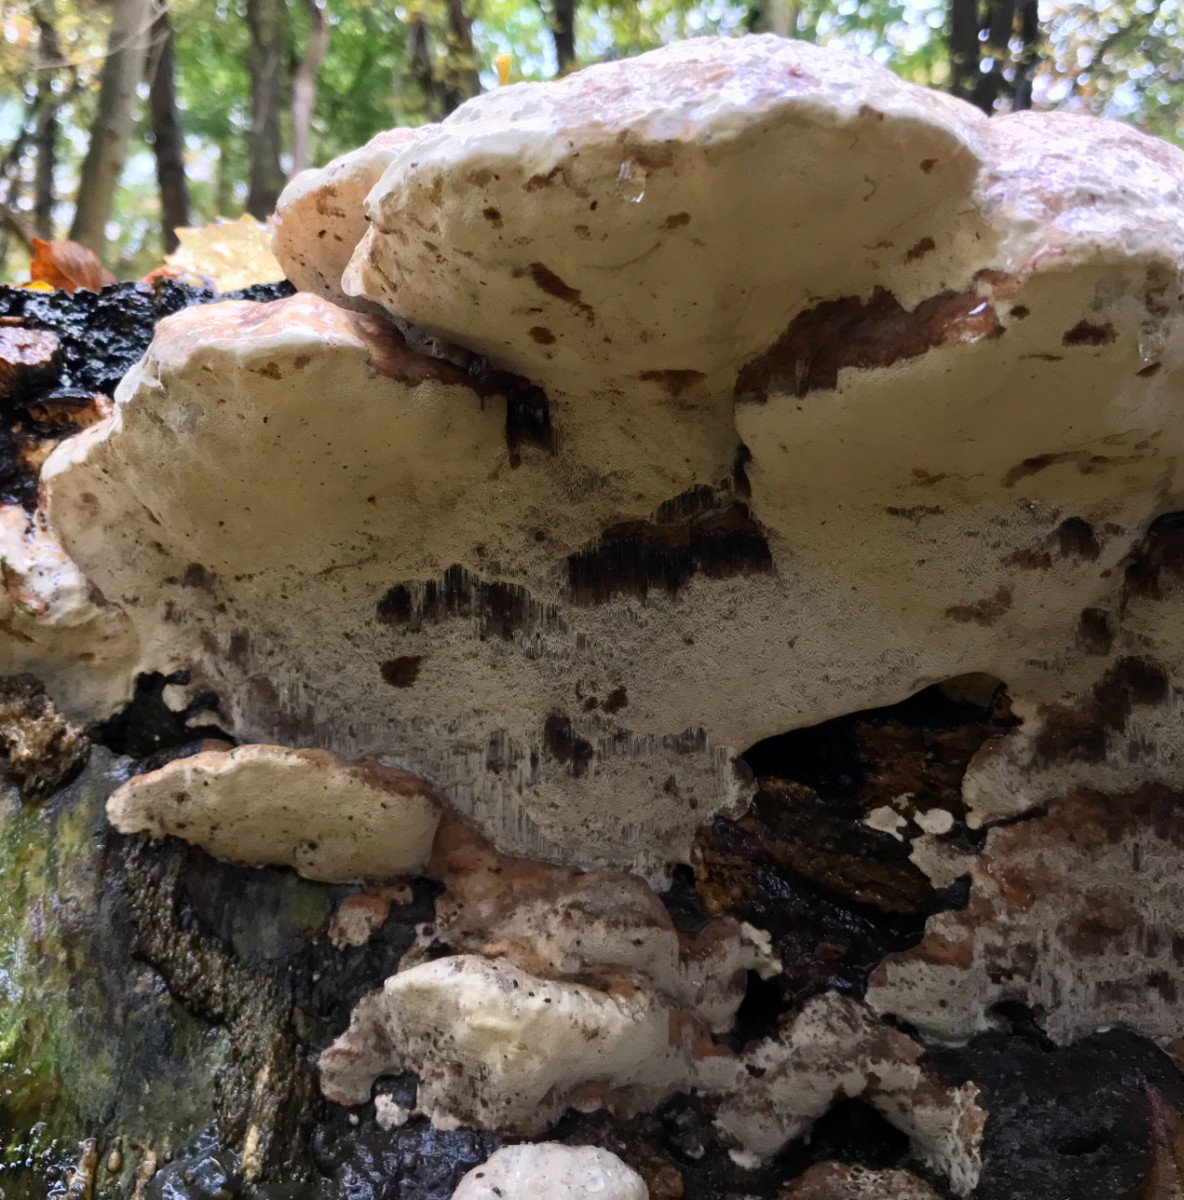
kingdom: Fungi
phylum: Basidiomycota
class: Agaricomycetes
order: Polyporales
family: Fomitopsidaceae
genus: Fomitopsis
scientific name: Fomitopsis pinicola
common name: randbæltet hovporesvamp
